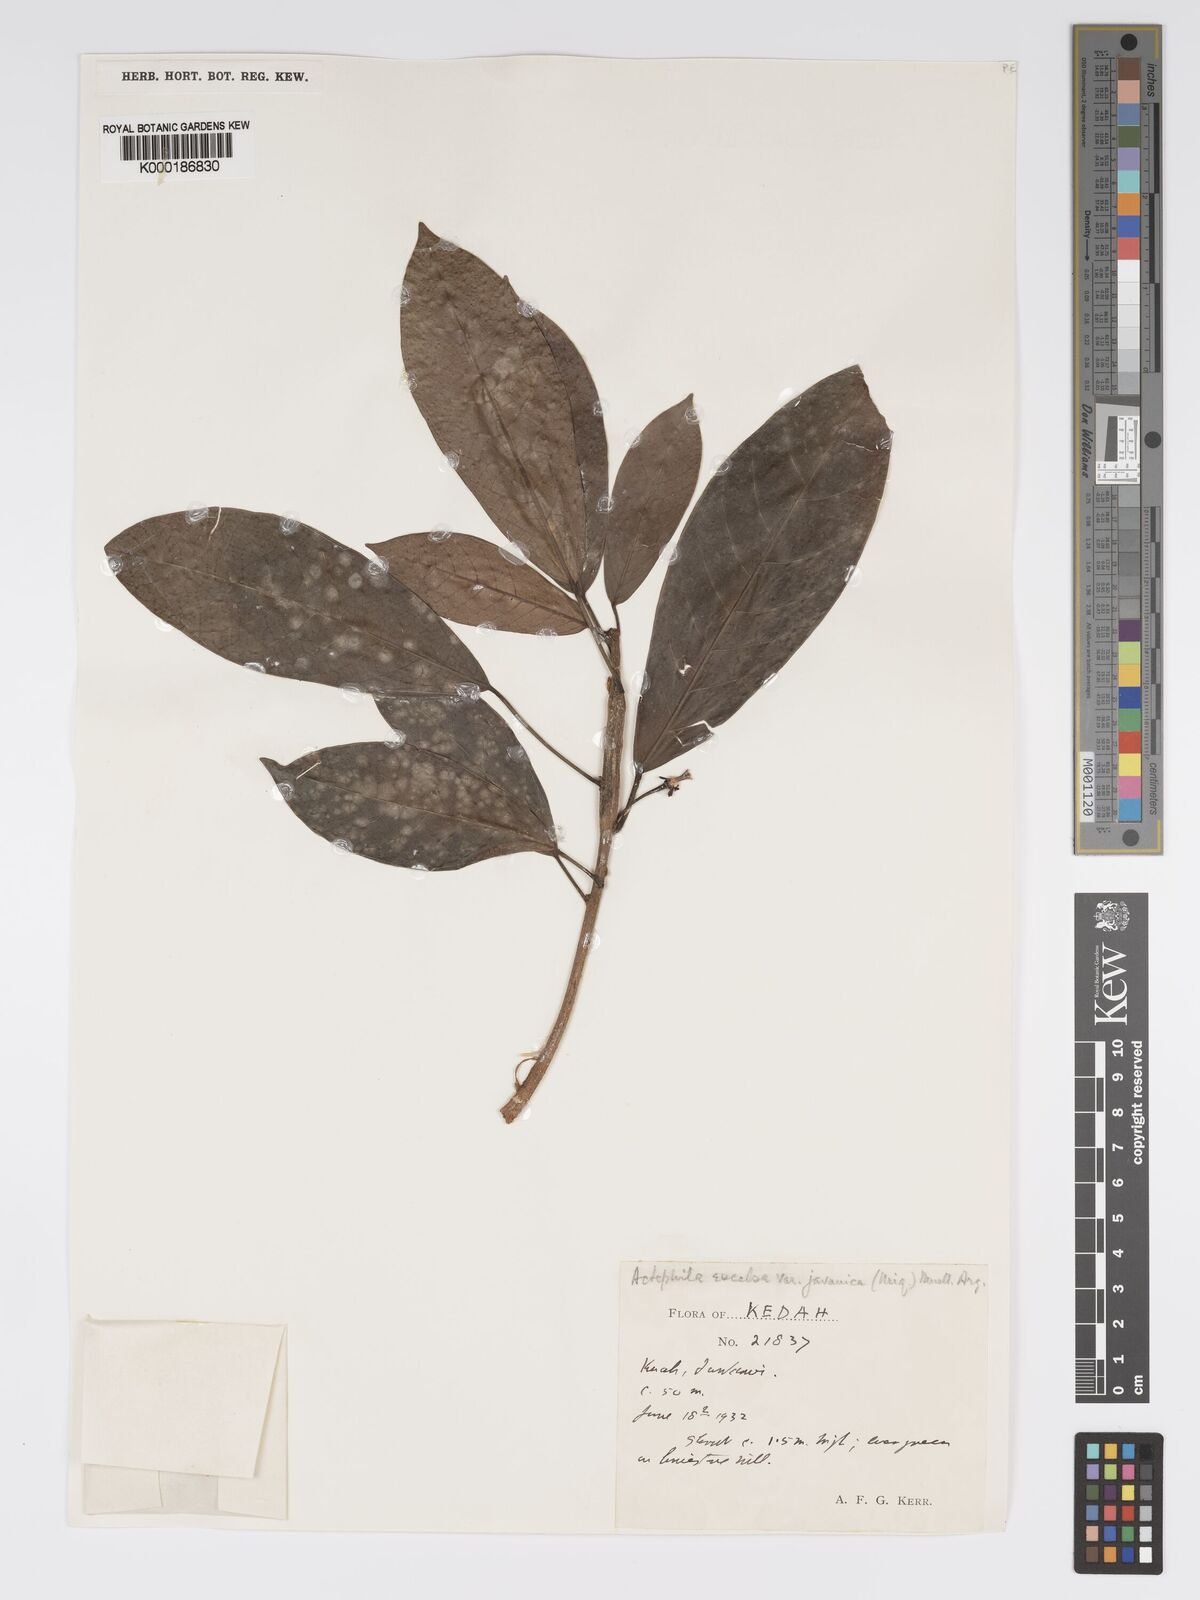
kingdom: Plantae
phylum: Tracheophyta
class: Magnoliopsida
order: Malpighiales
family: Phyllanthaceae
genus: Actephila
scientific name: Actephila
